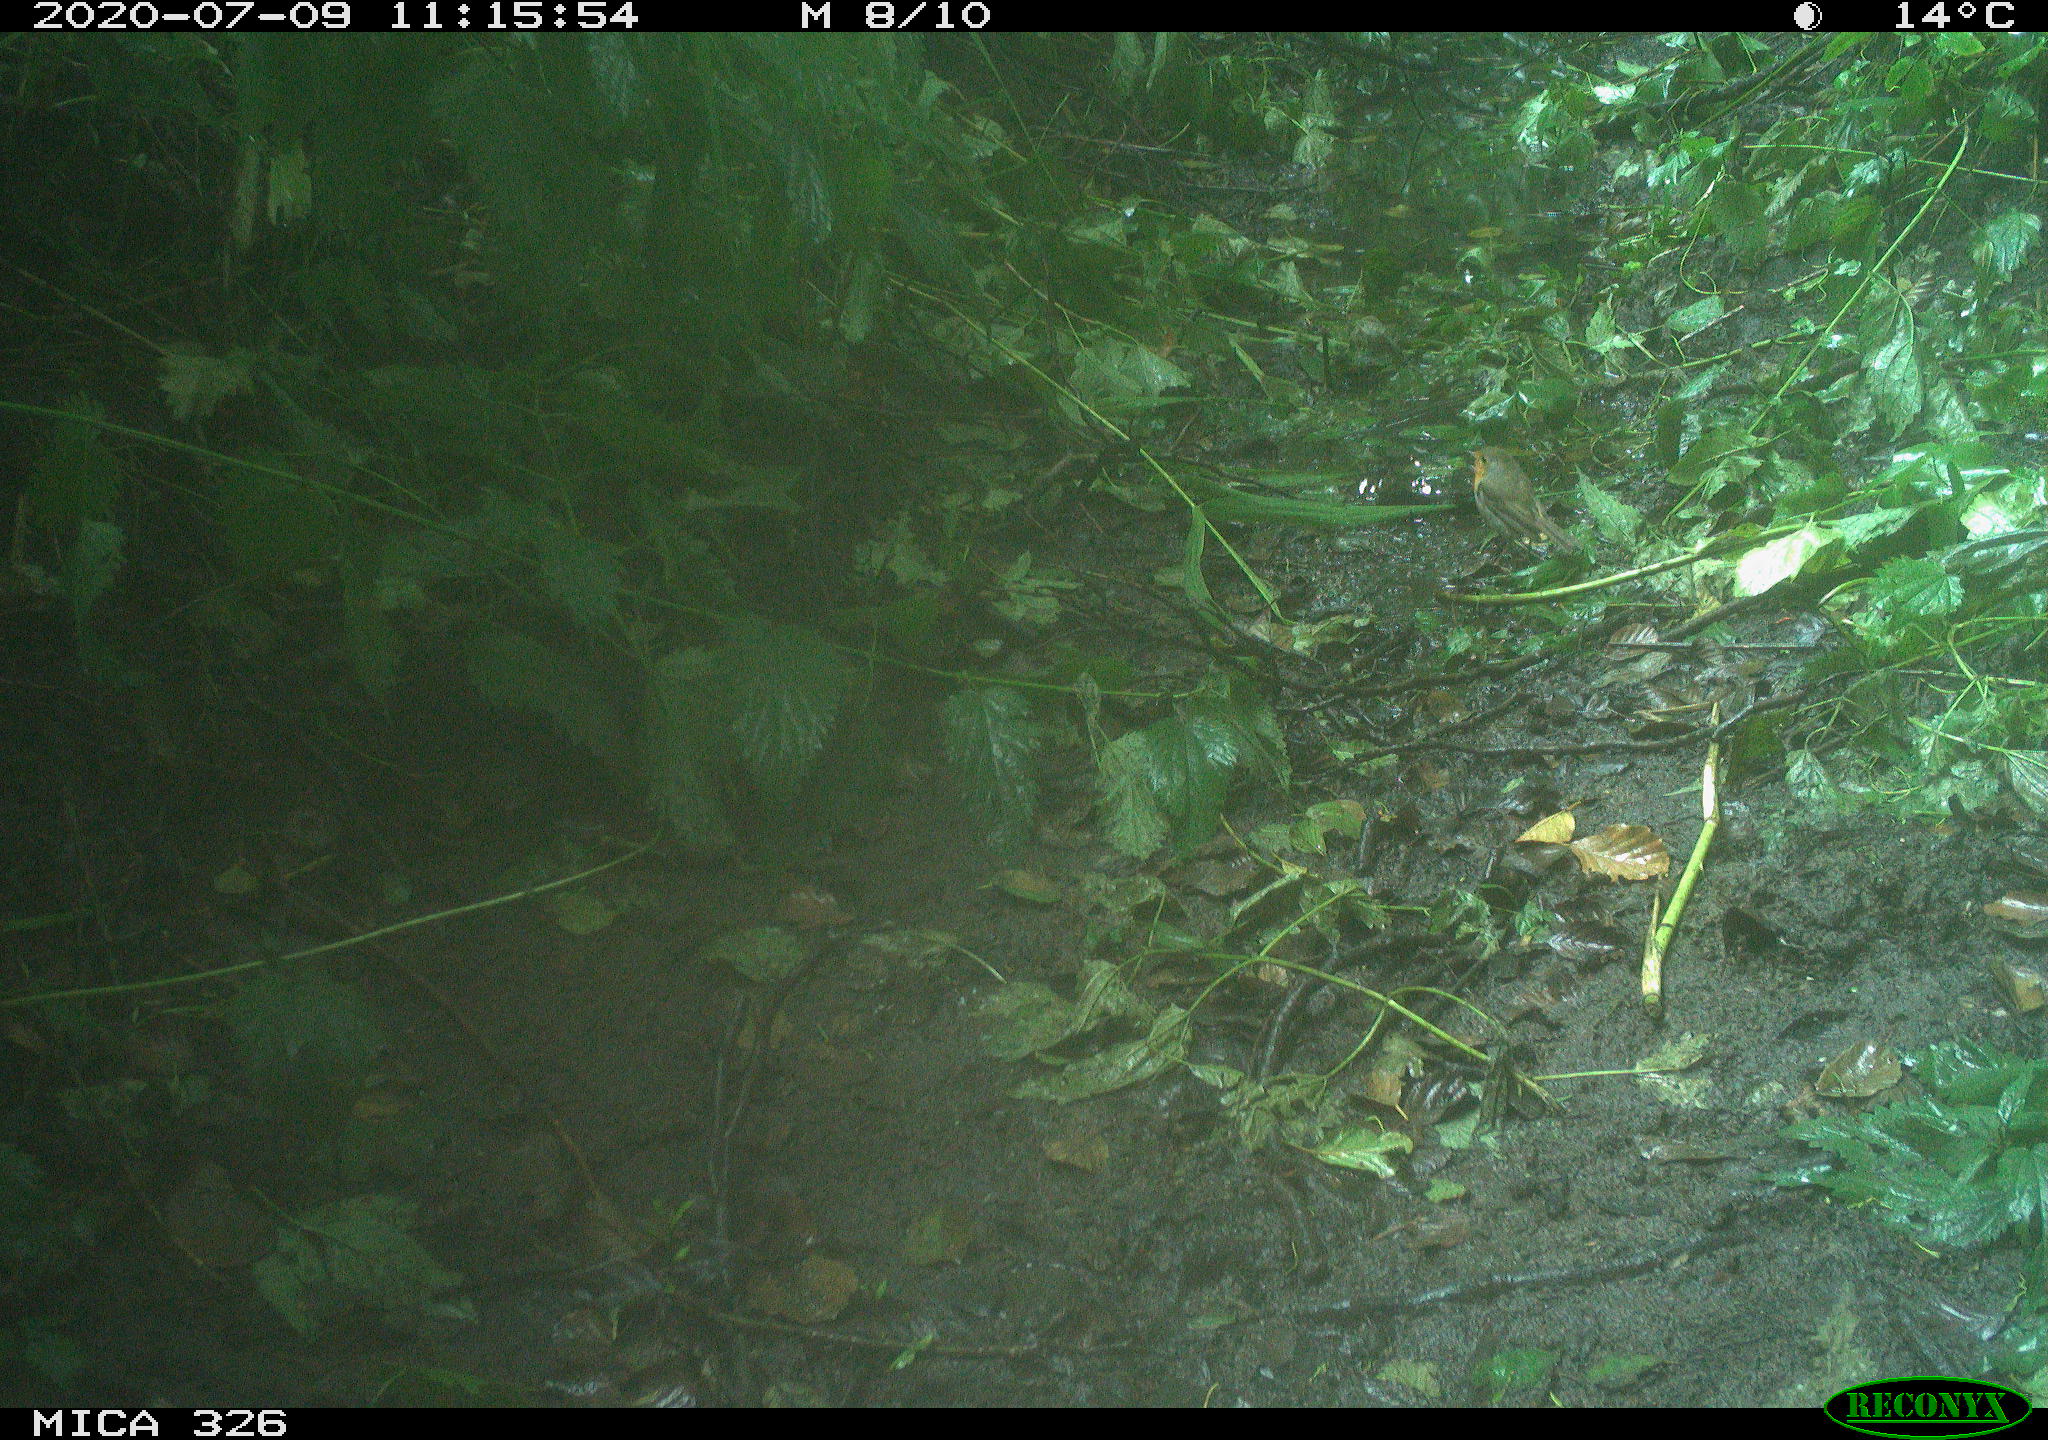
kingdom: Animalia
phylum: Chordata
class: Aves
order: Passeriformes
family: Muscicapidae
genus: Erithacus
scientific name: Erithacus rubecula
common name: European robin
